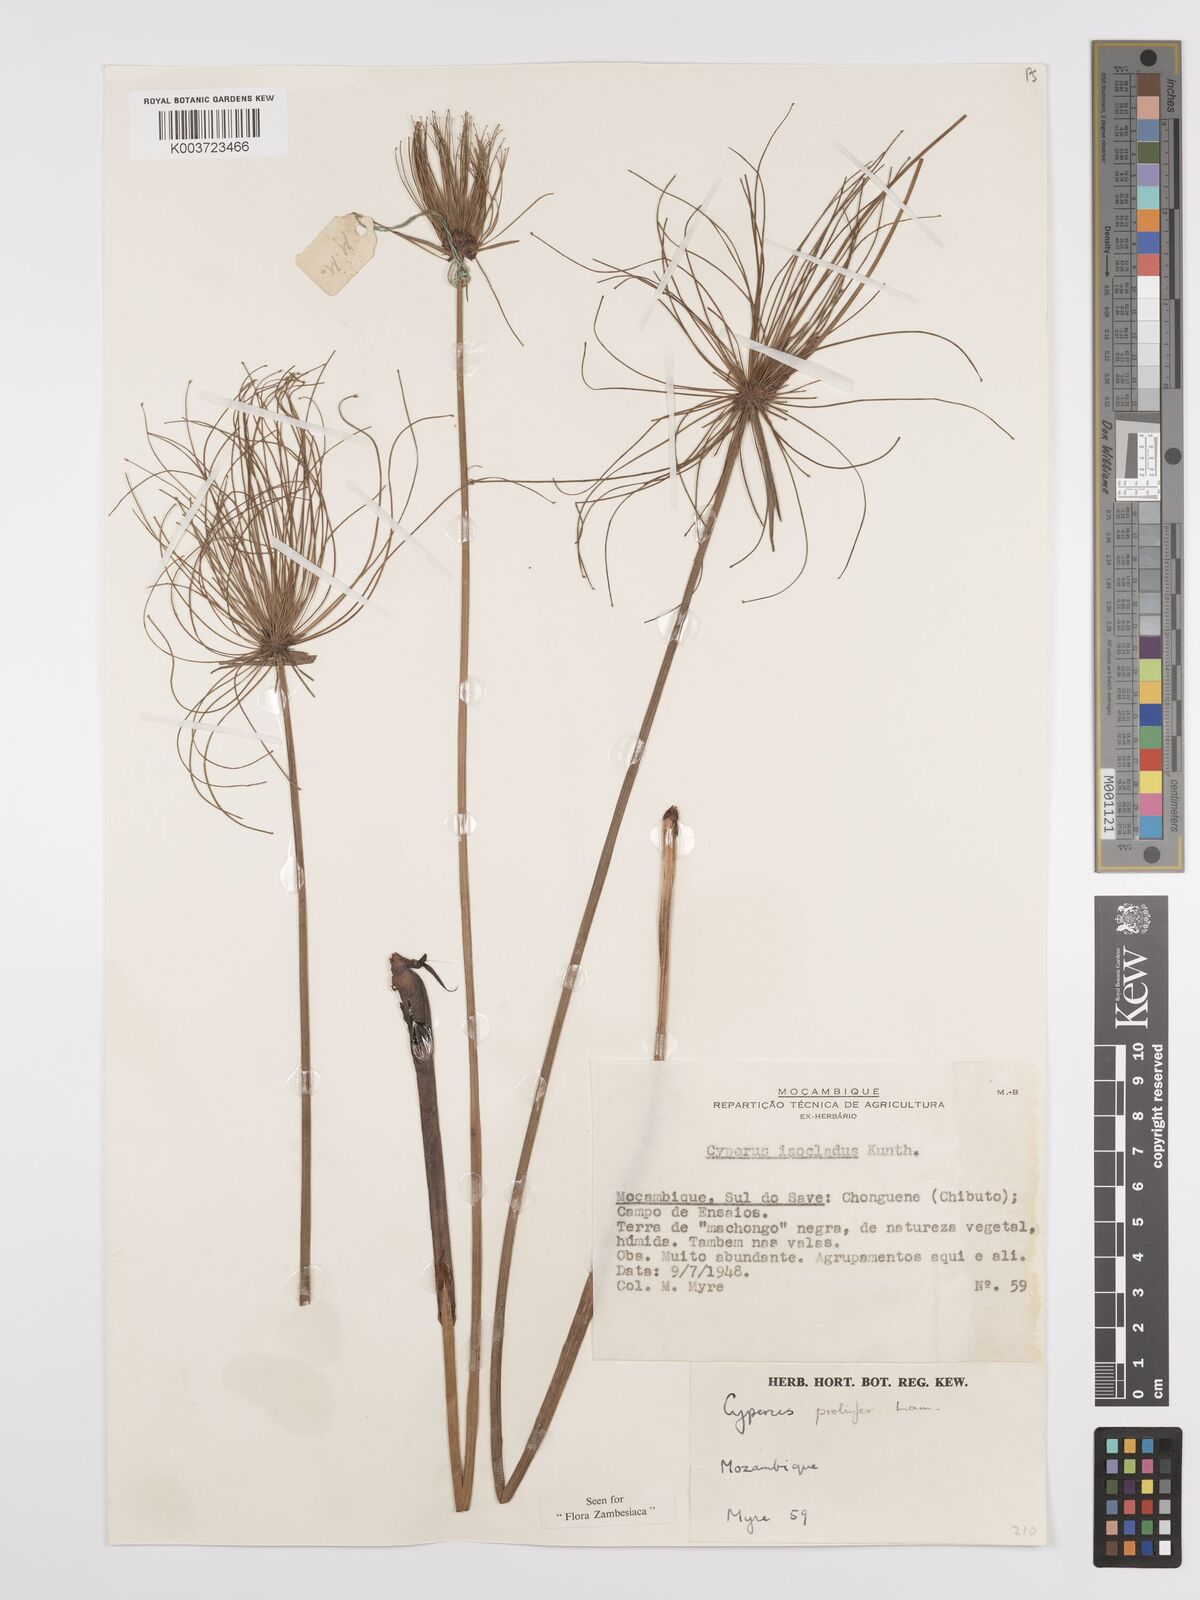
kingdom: Plantae
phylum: Tracheophyta
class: Liliopsida
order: Poales
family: Cyperaceae
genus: Cyperus
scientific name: Cyperus prolifer
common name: Miniature flatsedge
